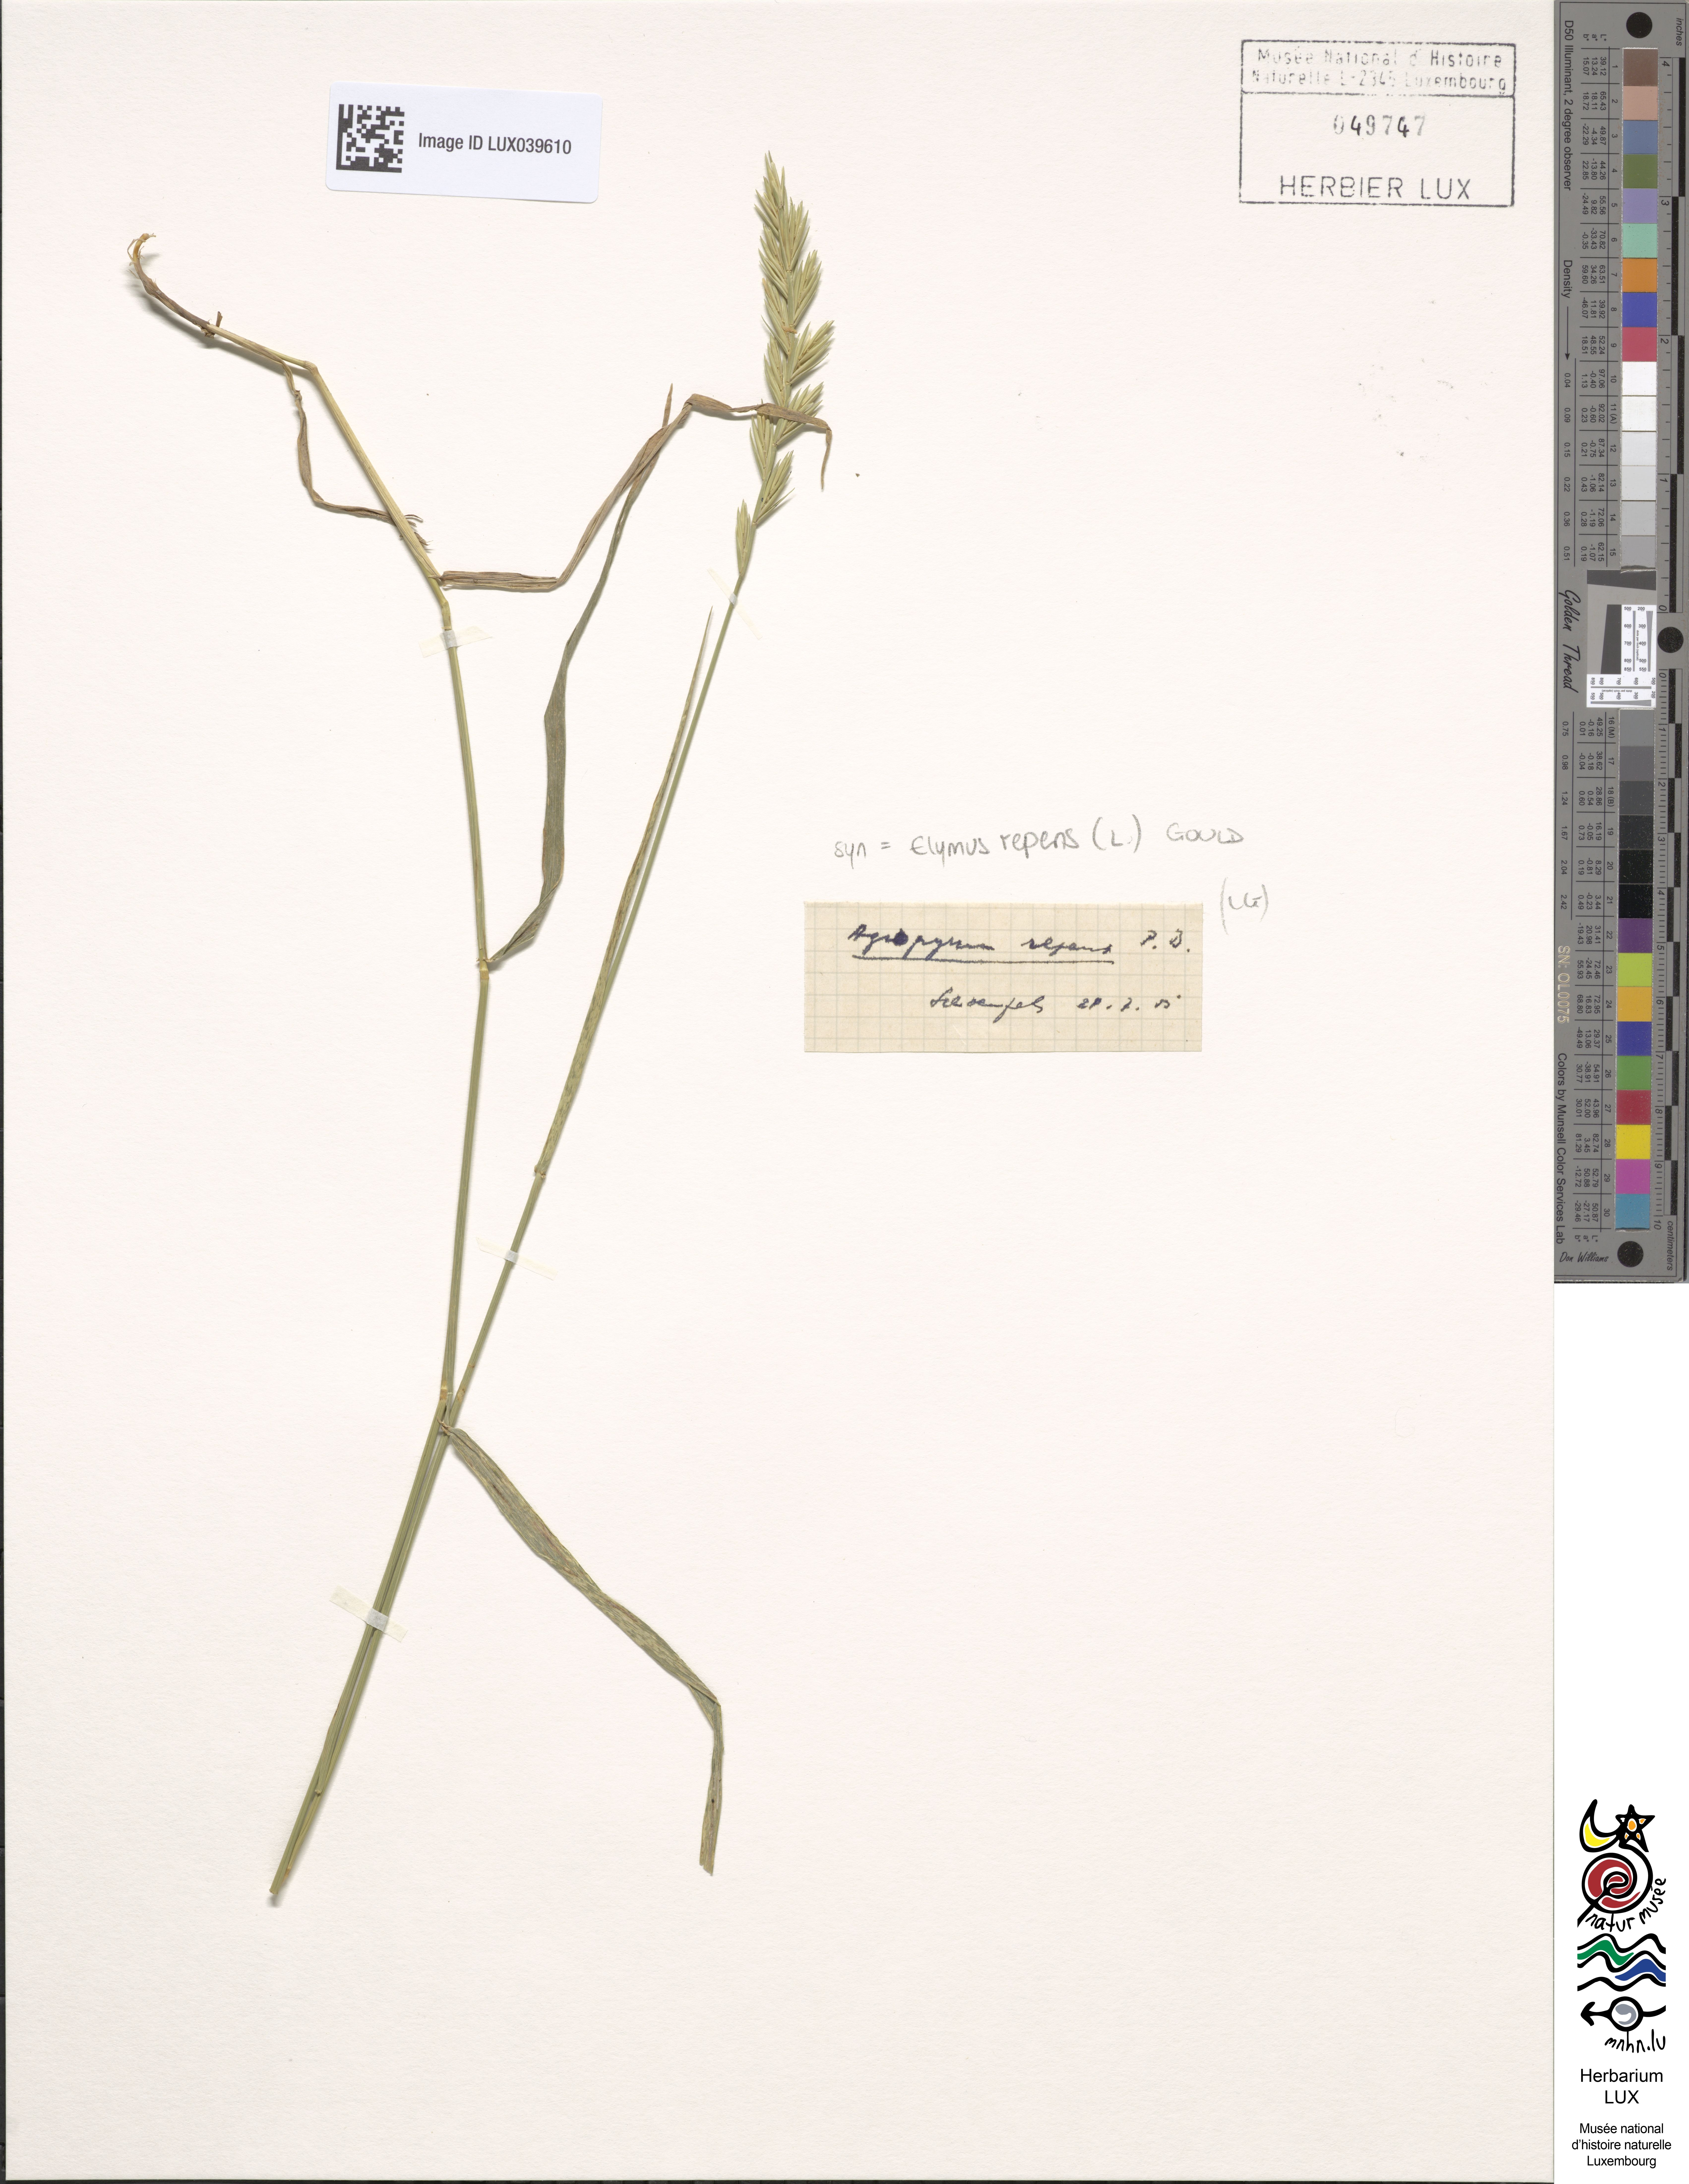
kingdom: Plantae
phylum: Tracheophyta
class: Liliopsida
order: Poales
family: Poaceae
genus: Elymus
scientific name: Elymus repens
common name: Quackgrass
